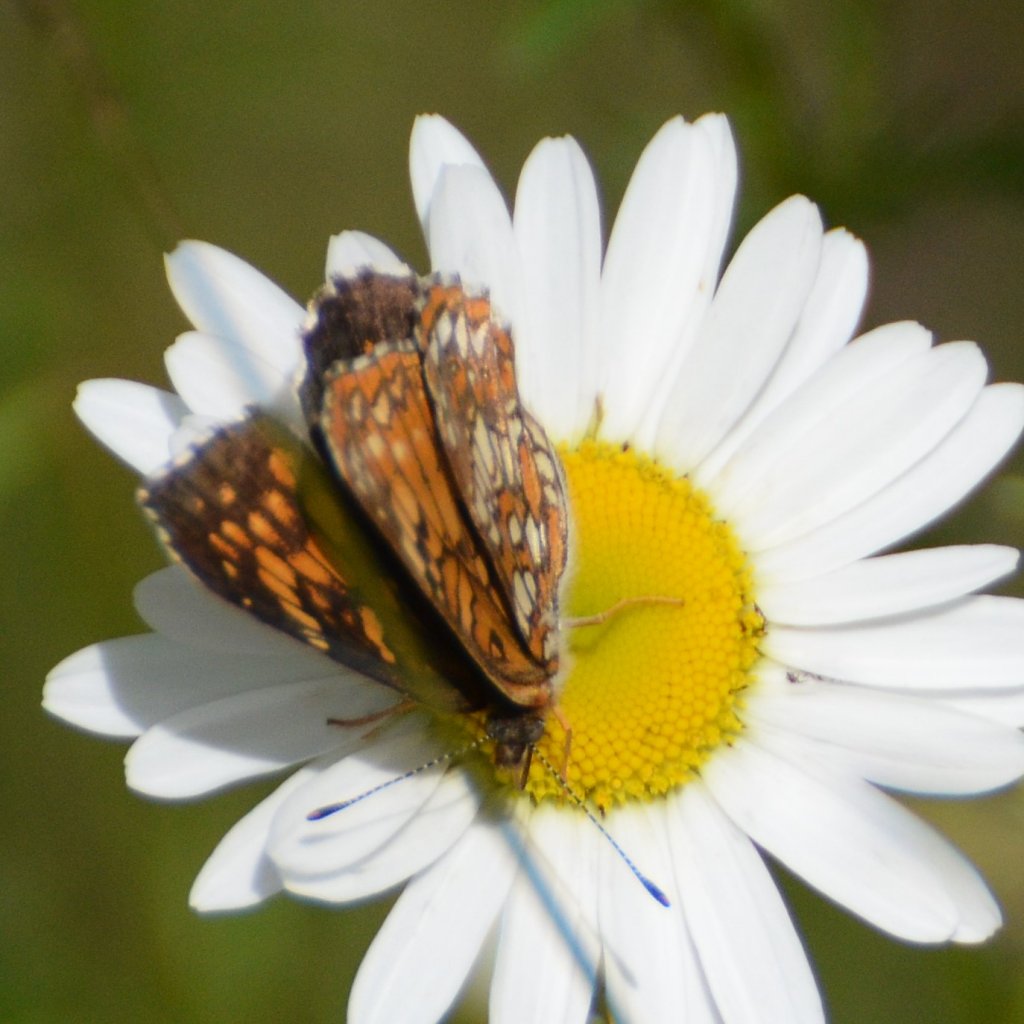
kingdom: Animalia
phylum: Arthropoda
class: Insecta
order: Lepidoptera
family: Nymphalidae
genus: Chlosyne
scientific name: Chlosyne harrisii
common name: Harris's Checkerspot
